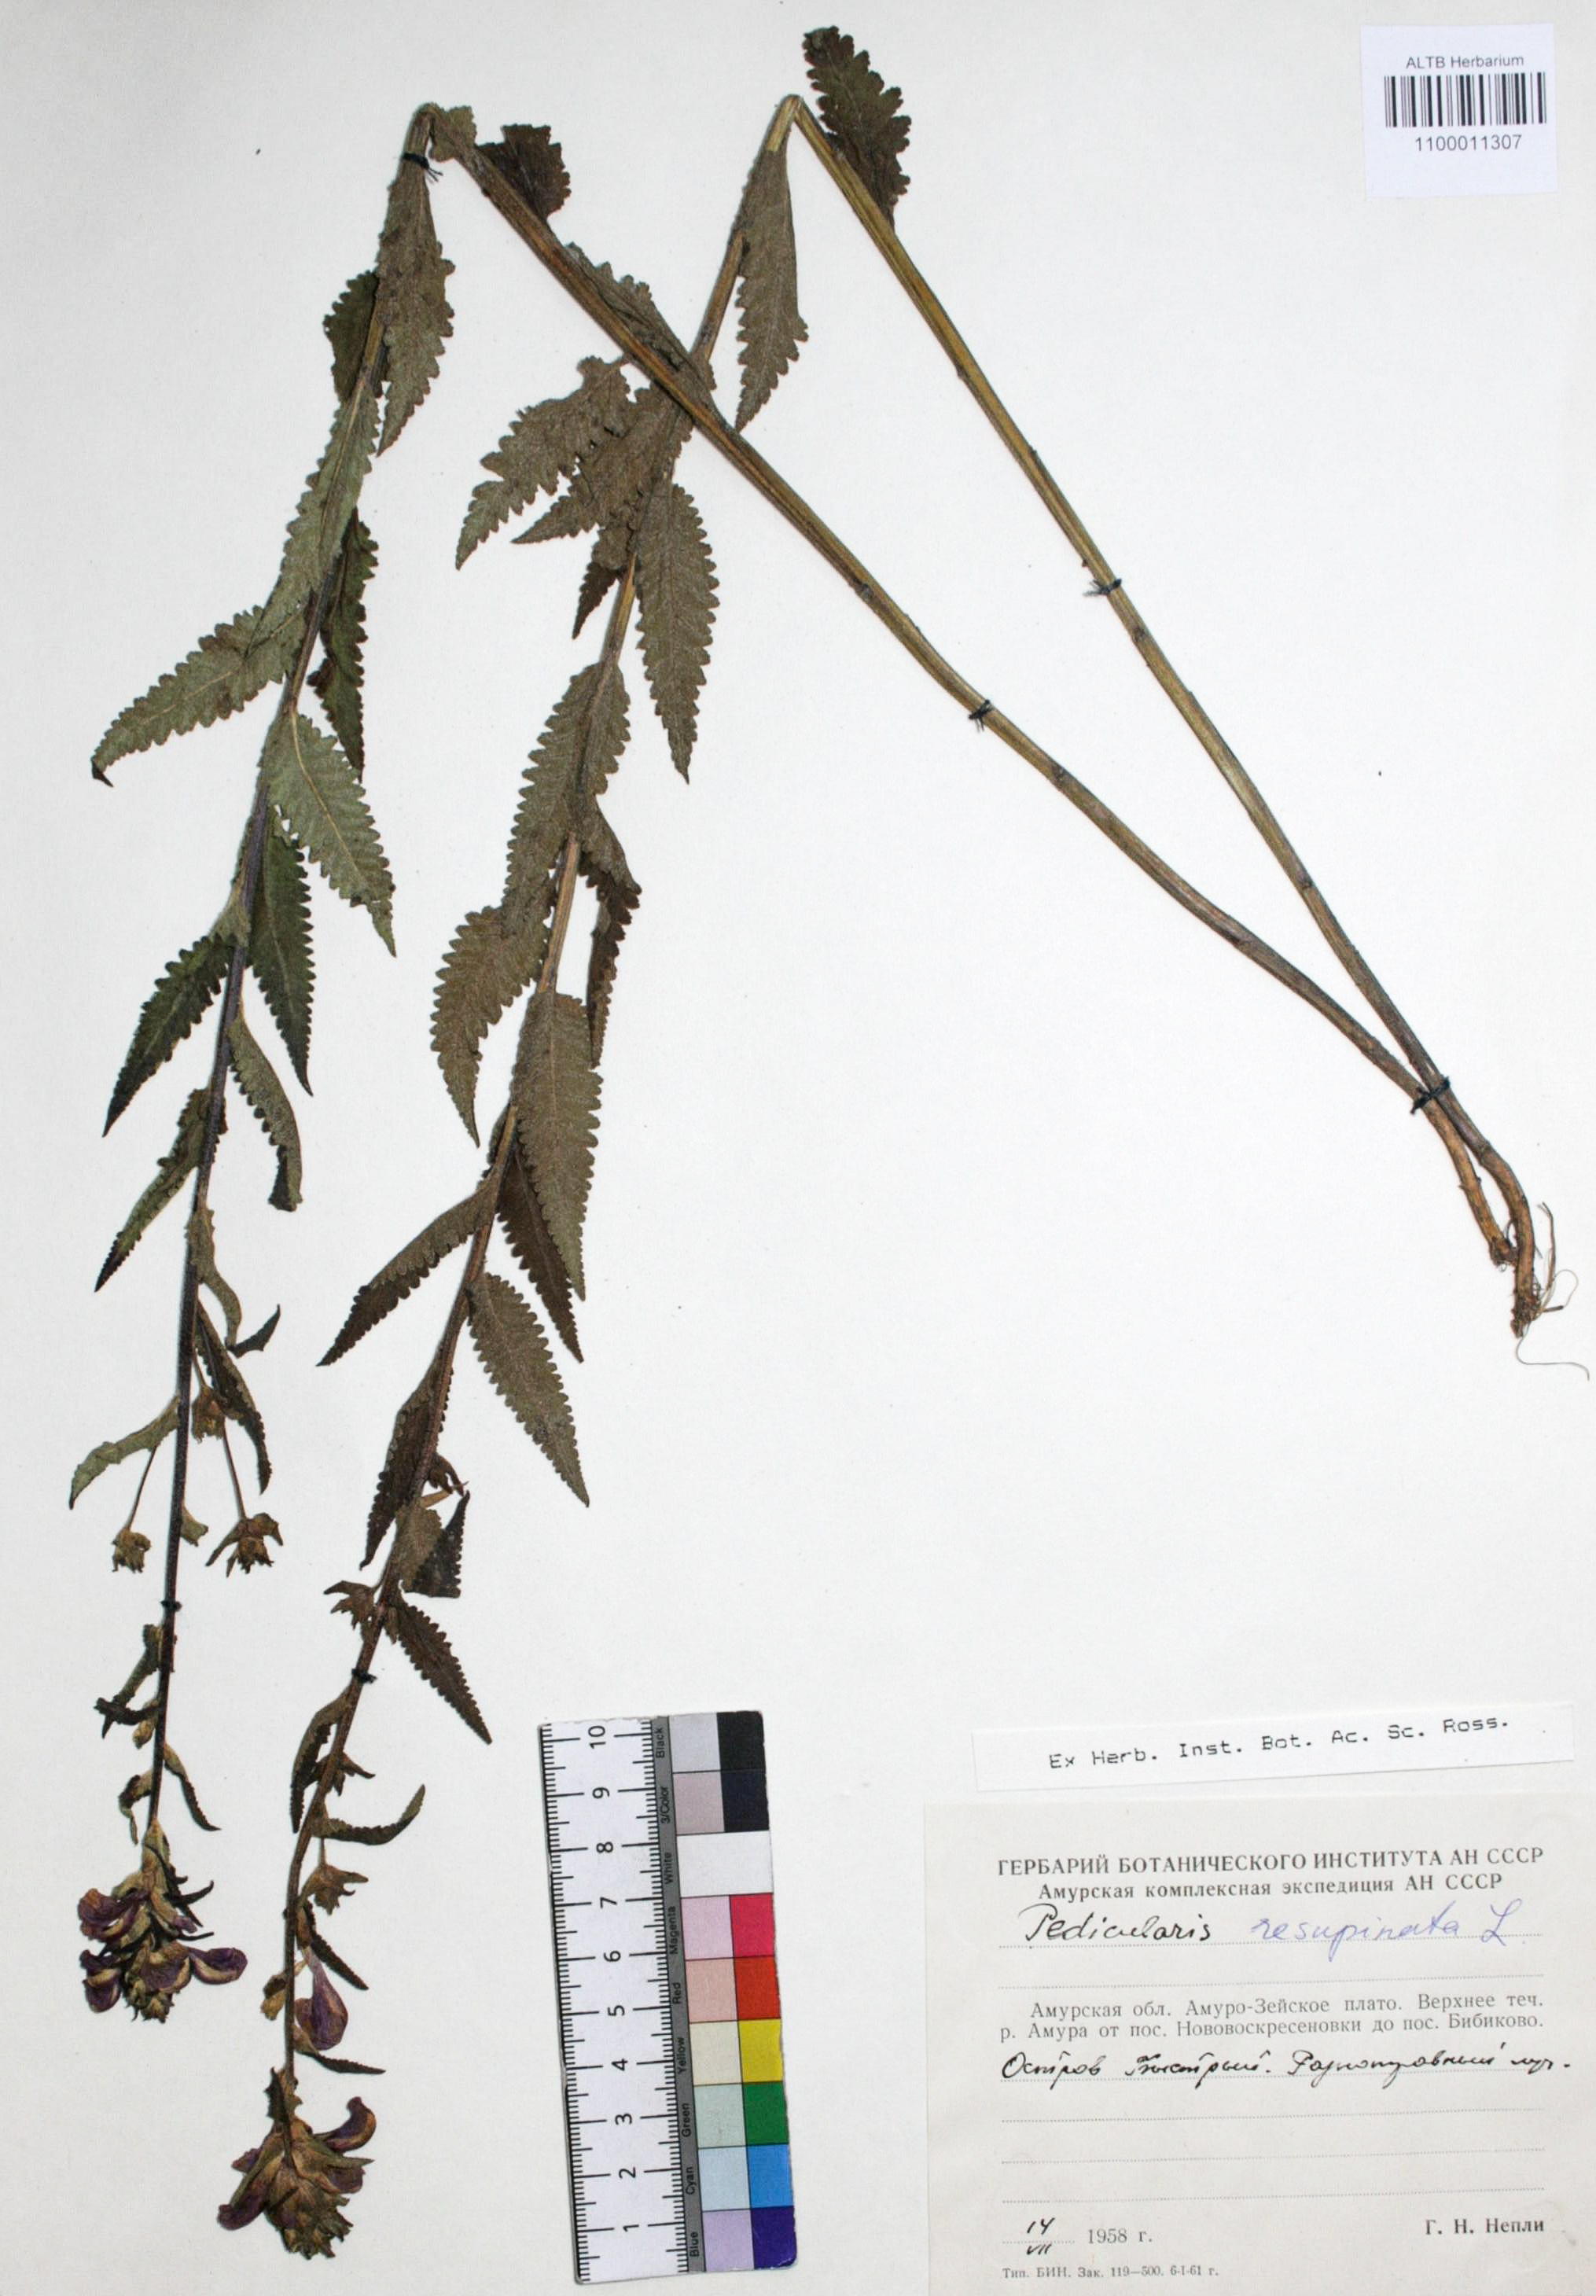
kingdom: Plantae
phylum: Tracheophyta
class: Magnoliopsida
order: Lamiales
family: Orobanchaceae
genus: Pedicularis
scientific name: Pedicularis resupinata
